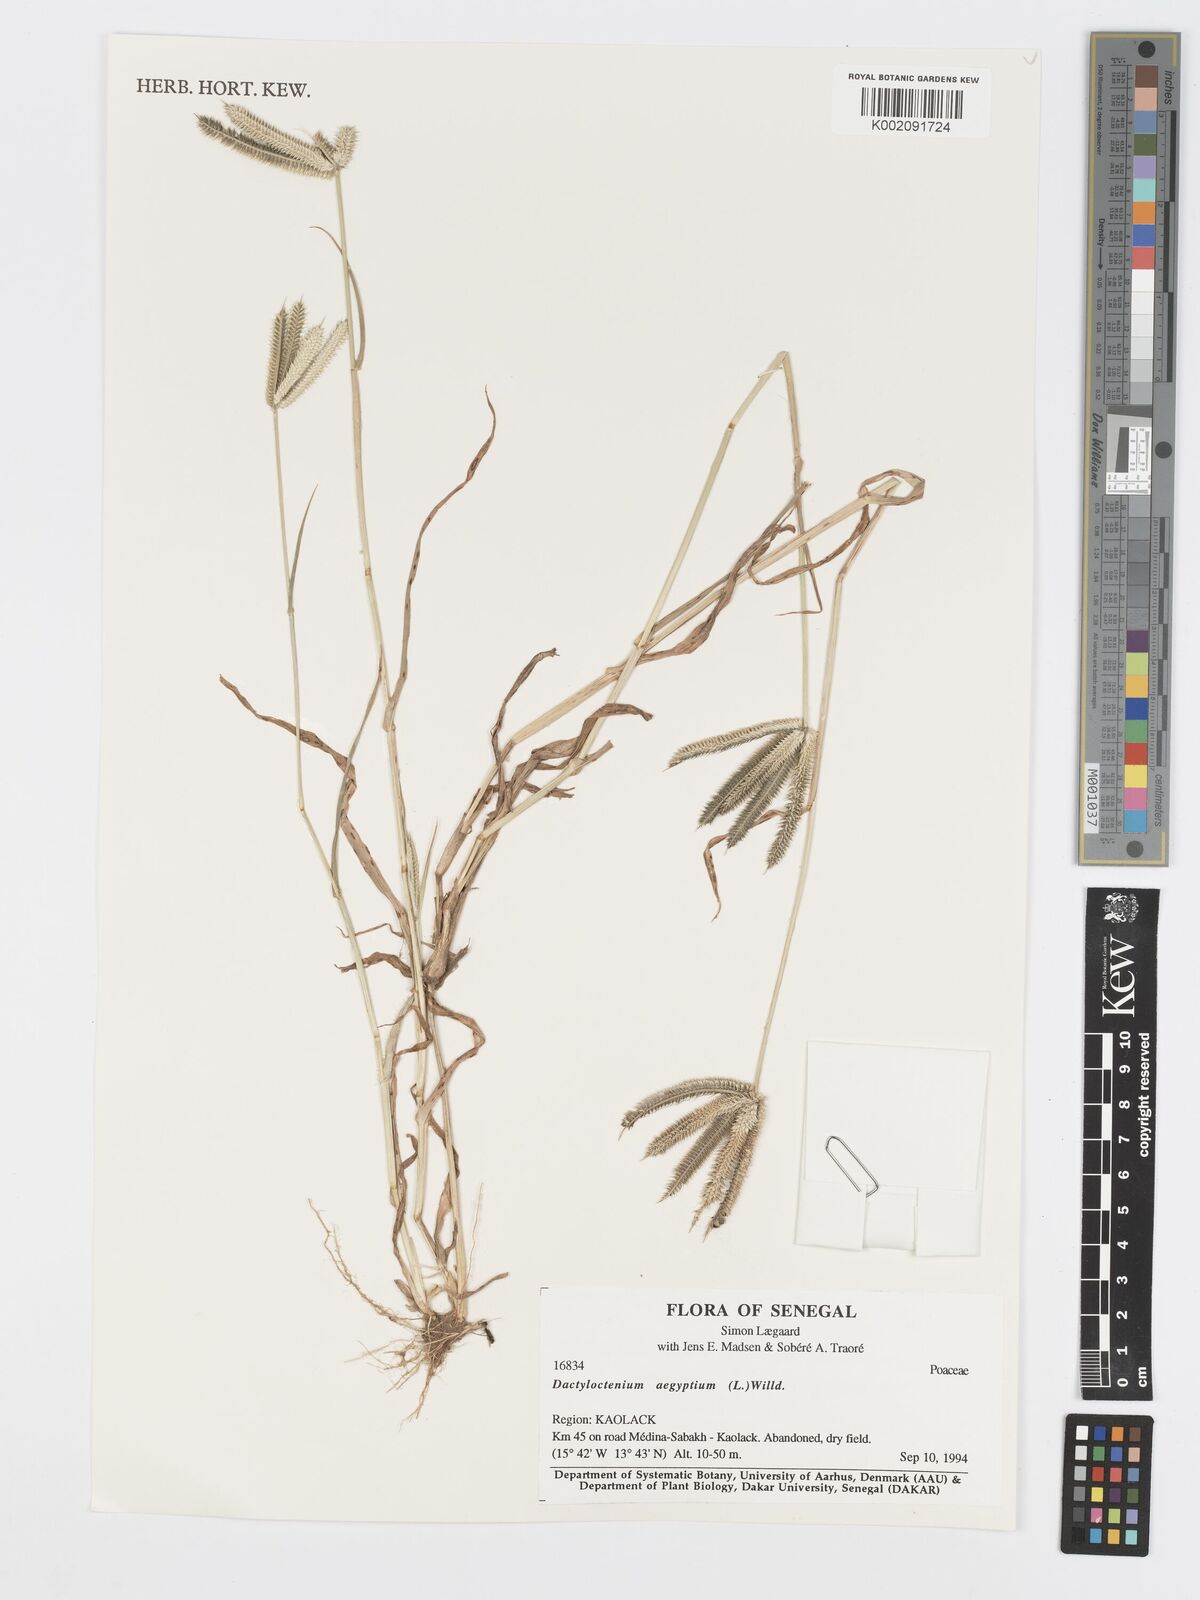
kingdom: Plantae
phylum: Tracheophyta
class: Liliopsida
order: Poales
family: Poaceae
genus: Dactyloctenium
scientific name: Dactyloctenium aegyptium
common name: Egyptian grass
